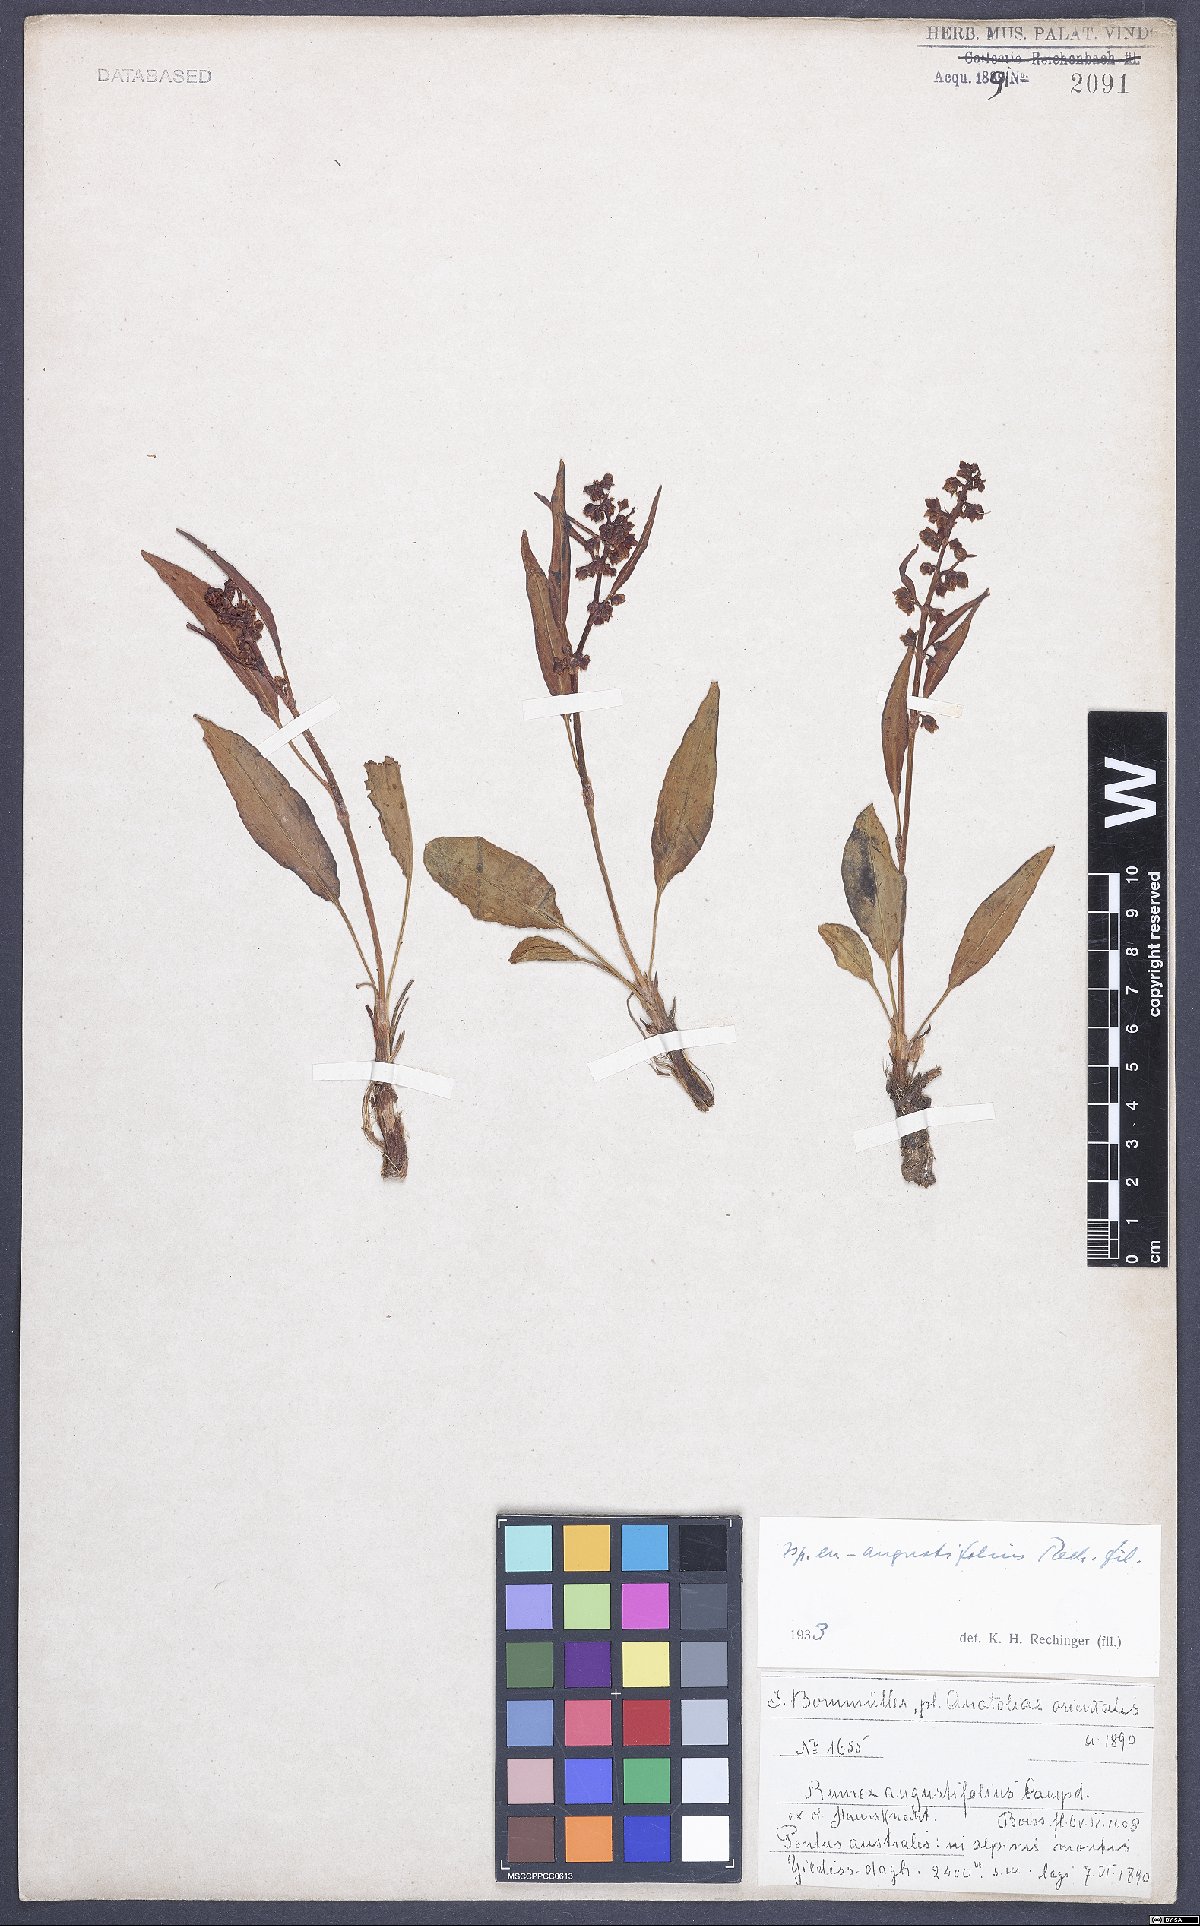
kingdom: Plantae
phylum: Tracheophyta
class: Magnoliopsida
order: Caryophyllales
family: Polygonaceae
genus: Rumex
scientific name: Rumex angustifolius
